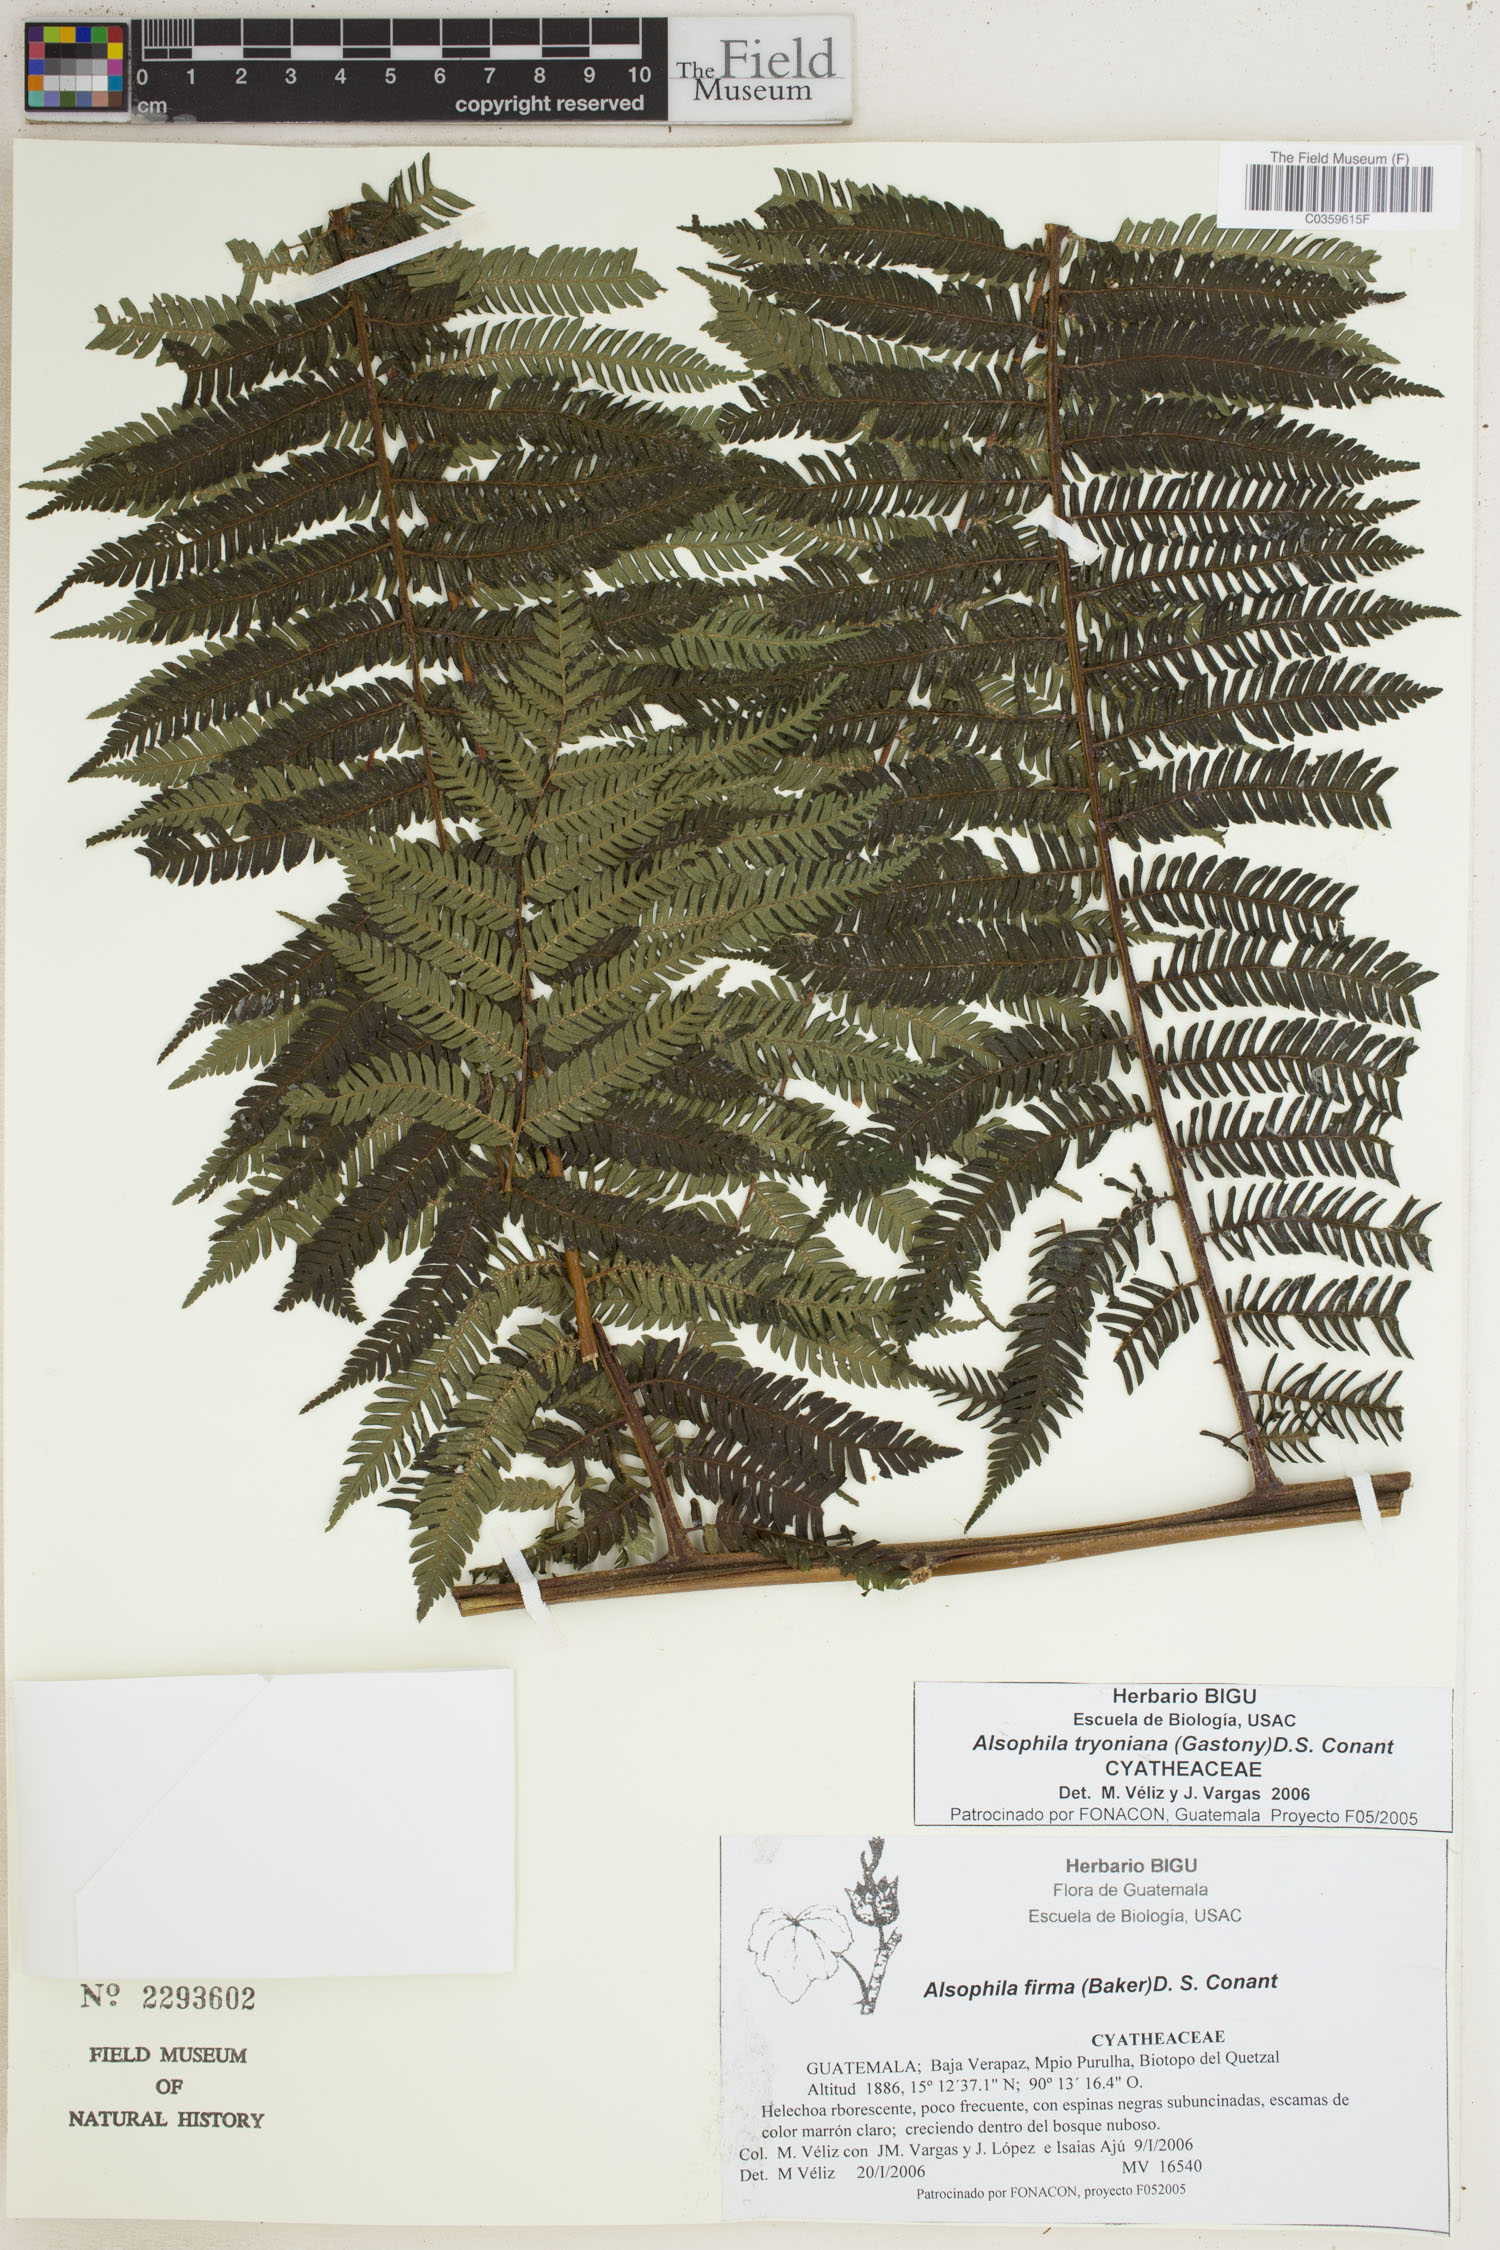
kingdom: Plantae
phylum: Tracheophyta
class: Polypodiopsida
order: Cyatheales
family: Cyatheaceae
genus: Alsophila
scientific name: Alsophila tryoniana
